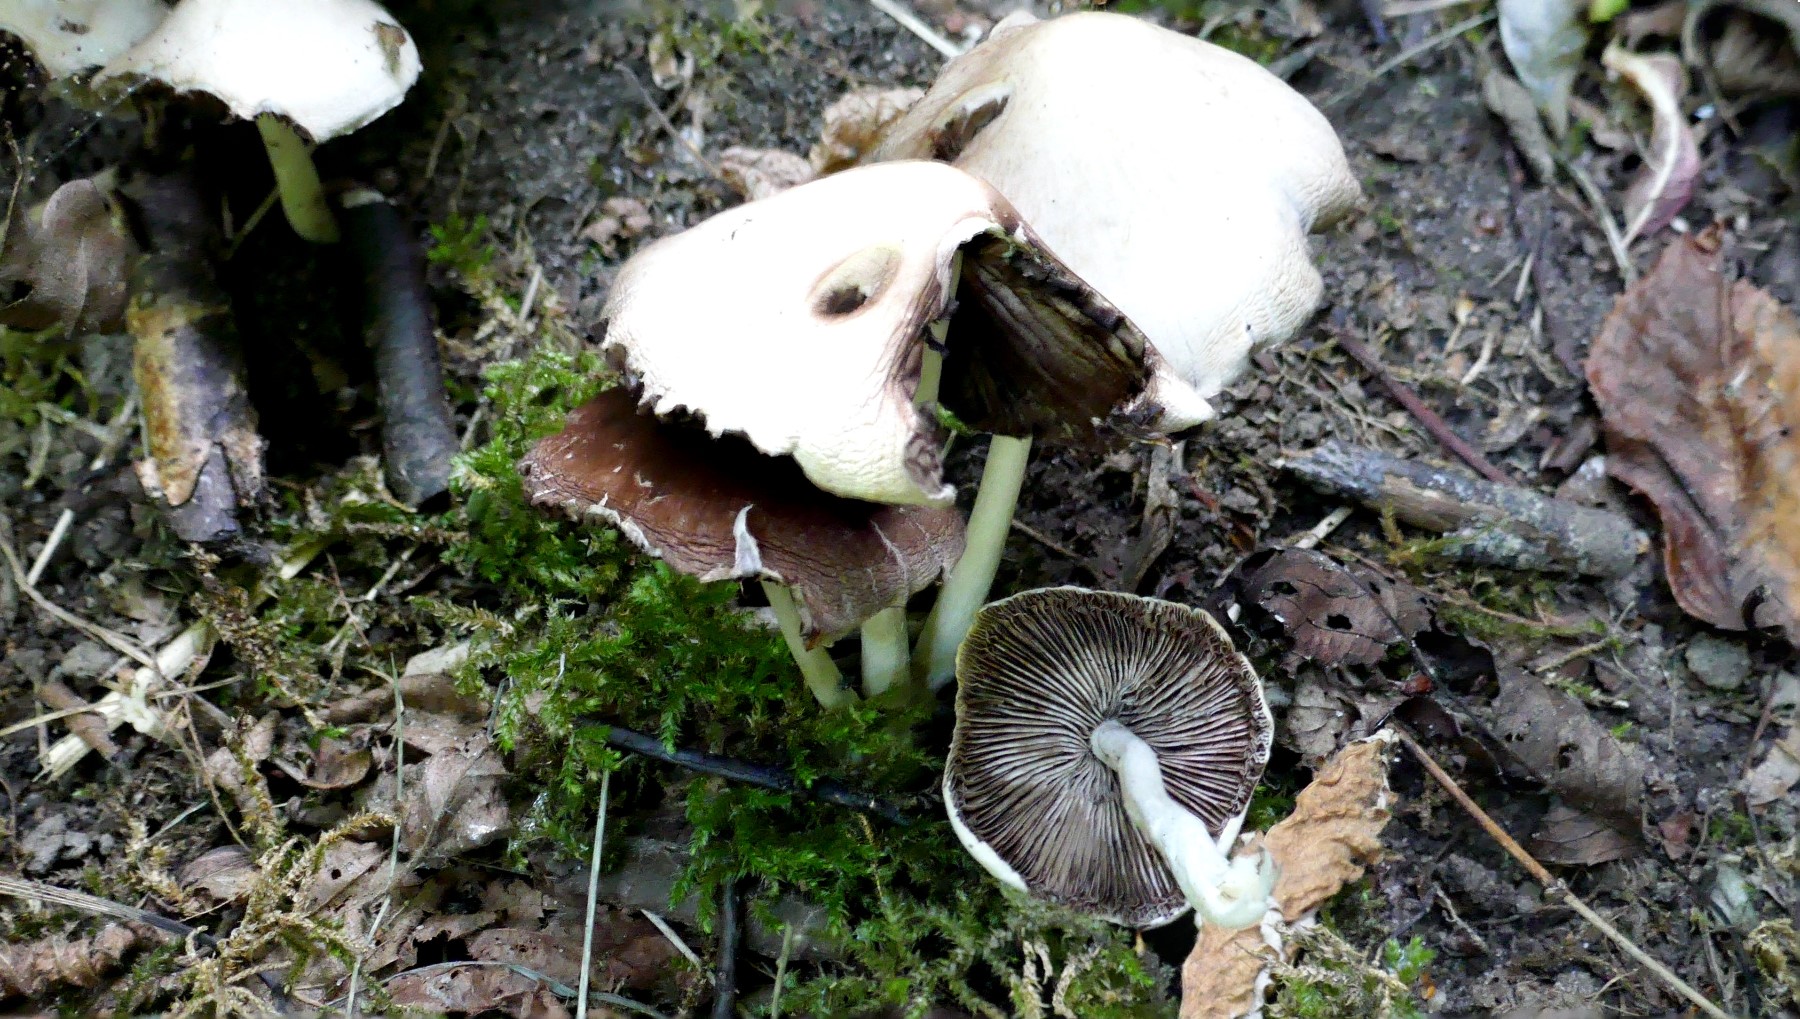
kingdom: Fungi
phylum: Basidiomycota
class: Agaricomycetes
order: Agaricales
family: Psathyrellaceae
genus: Candolleomyces
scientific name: Candolleomyces candolleanus
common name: Candolles mørkhat
